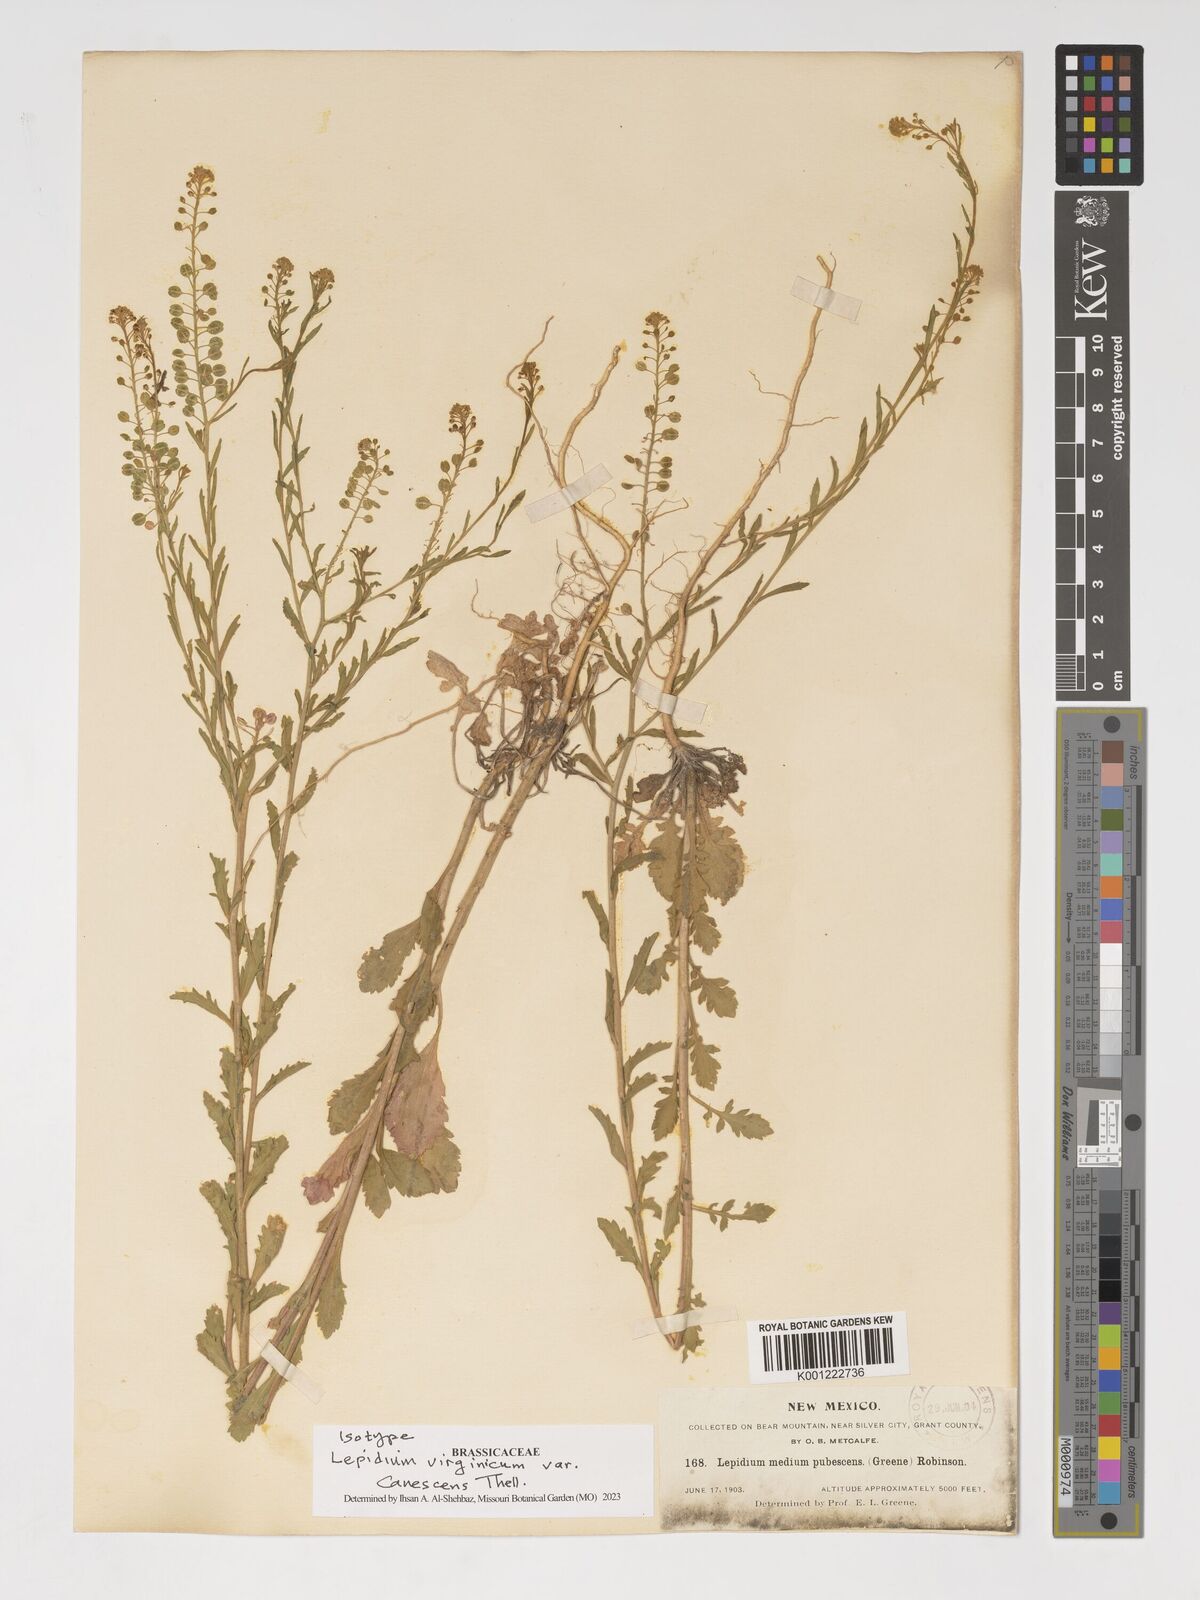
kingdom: Plantae
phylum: Tracheophyta
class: Magnoliopsida
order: Brassicales
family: Brassicaceae
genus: Lepidium
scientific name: Lepidium virginicum
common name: Least pepperwort
